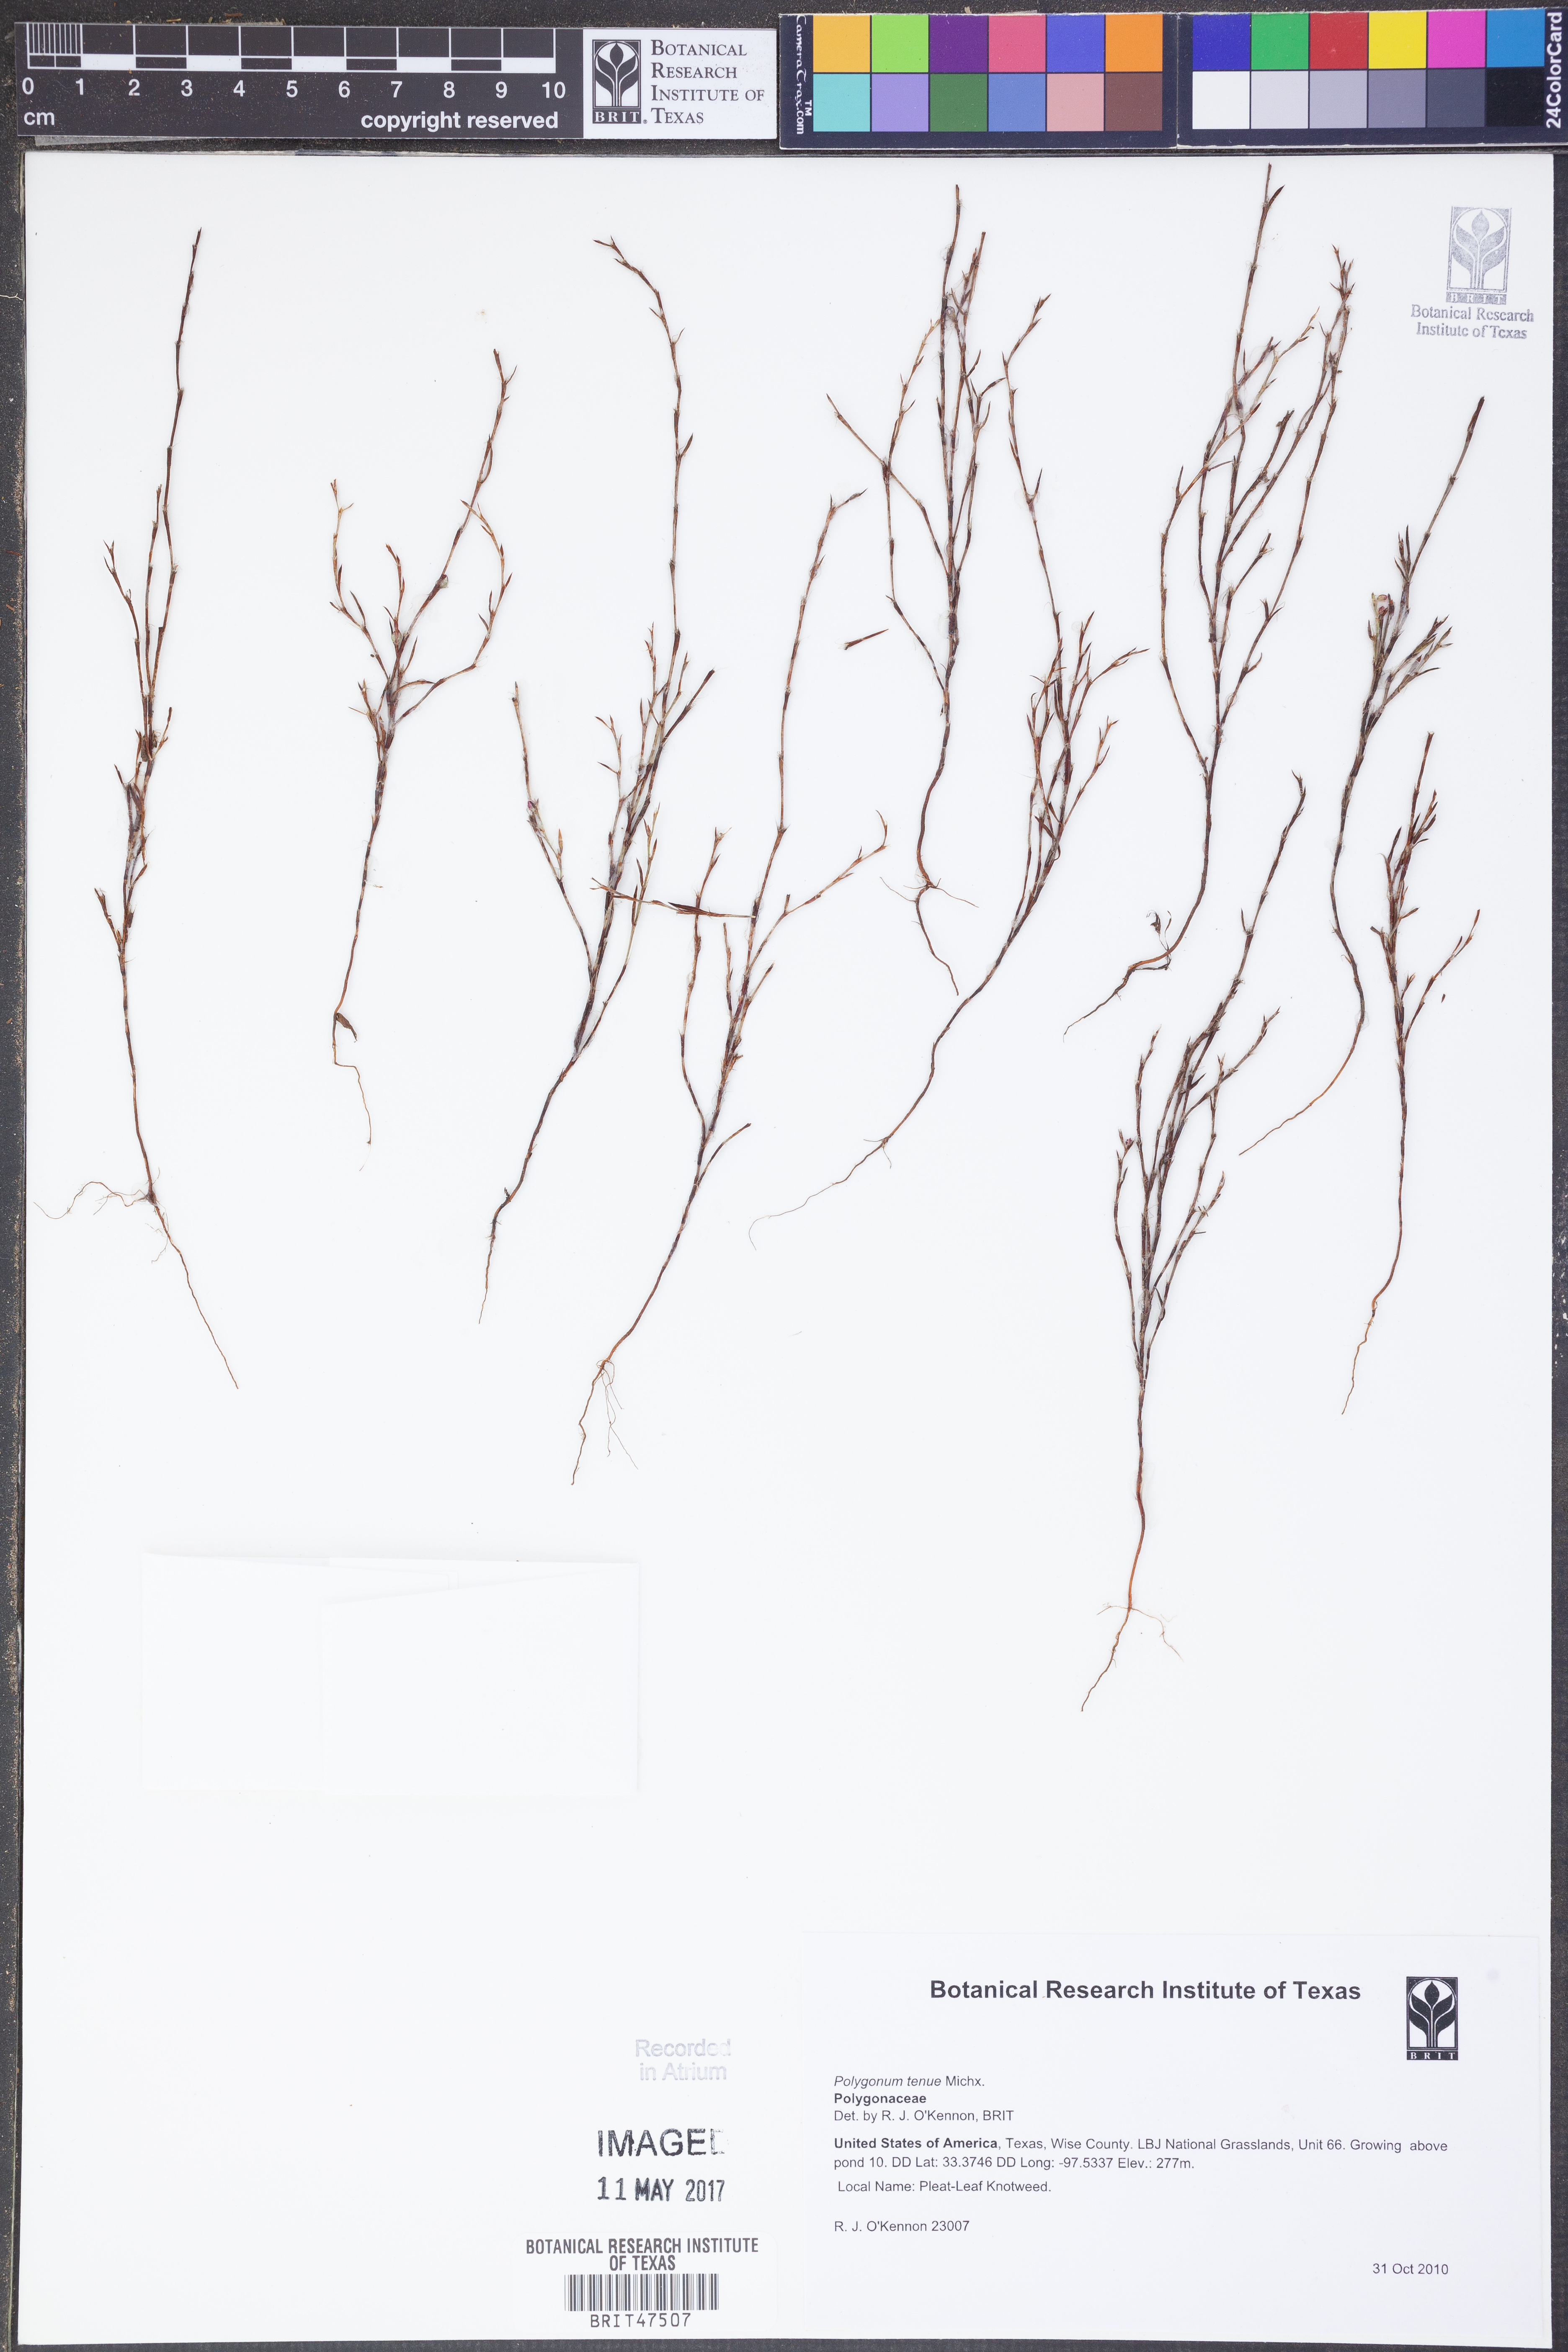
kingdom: Plantae
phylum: Tracheophyta
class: Magnoliopsida
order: Caryophyllales
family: Polygonaceae
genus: Polygonum
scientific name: Polygonum tenue
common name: Pleat-leaved knotweed
